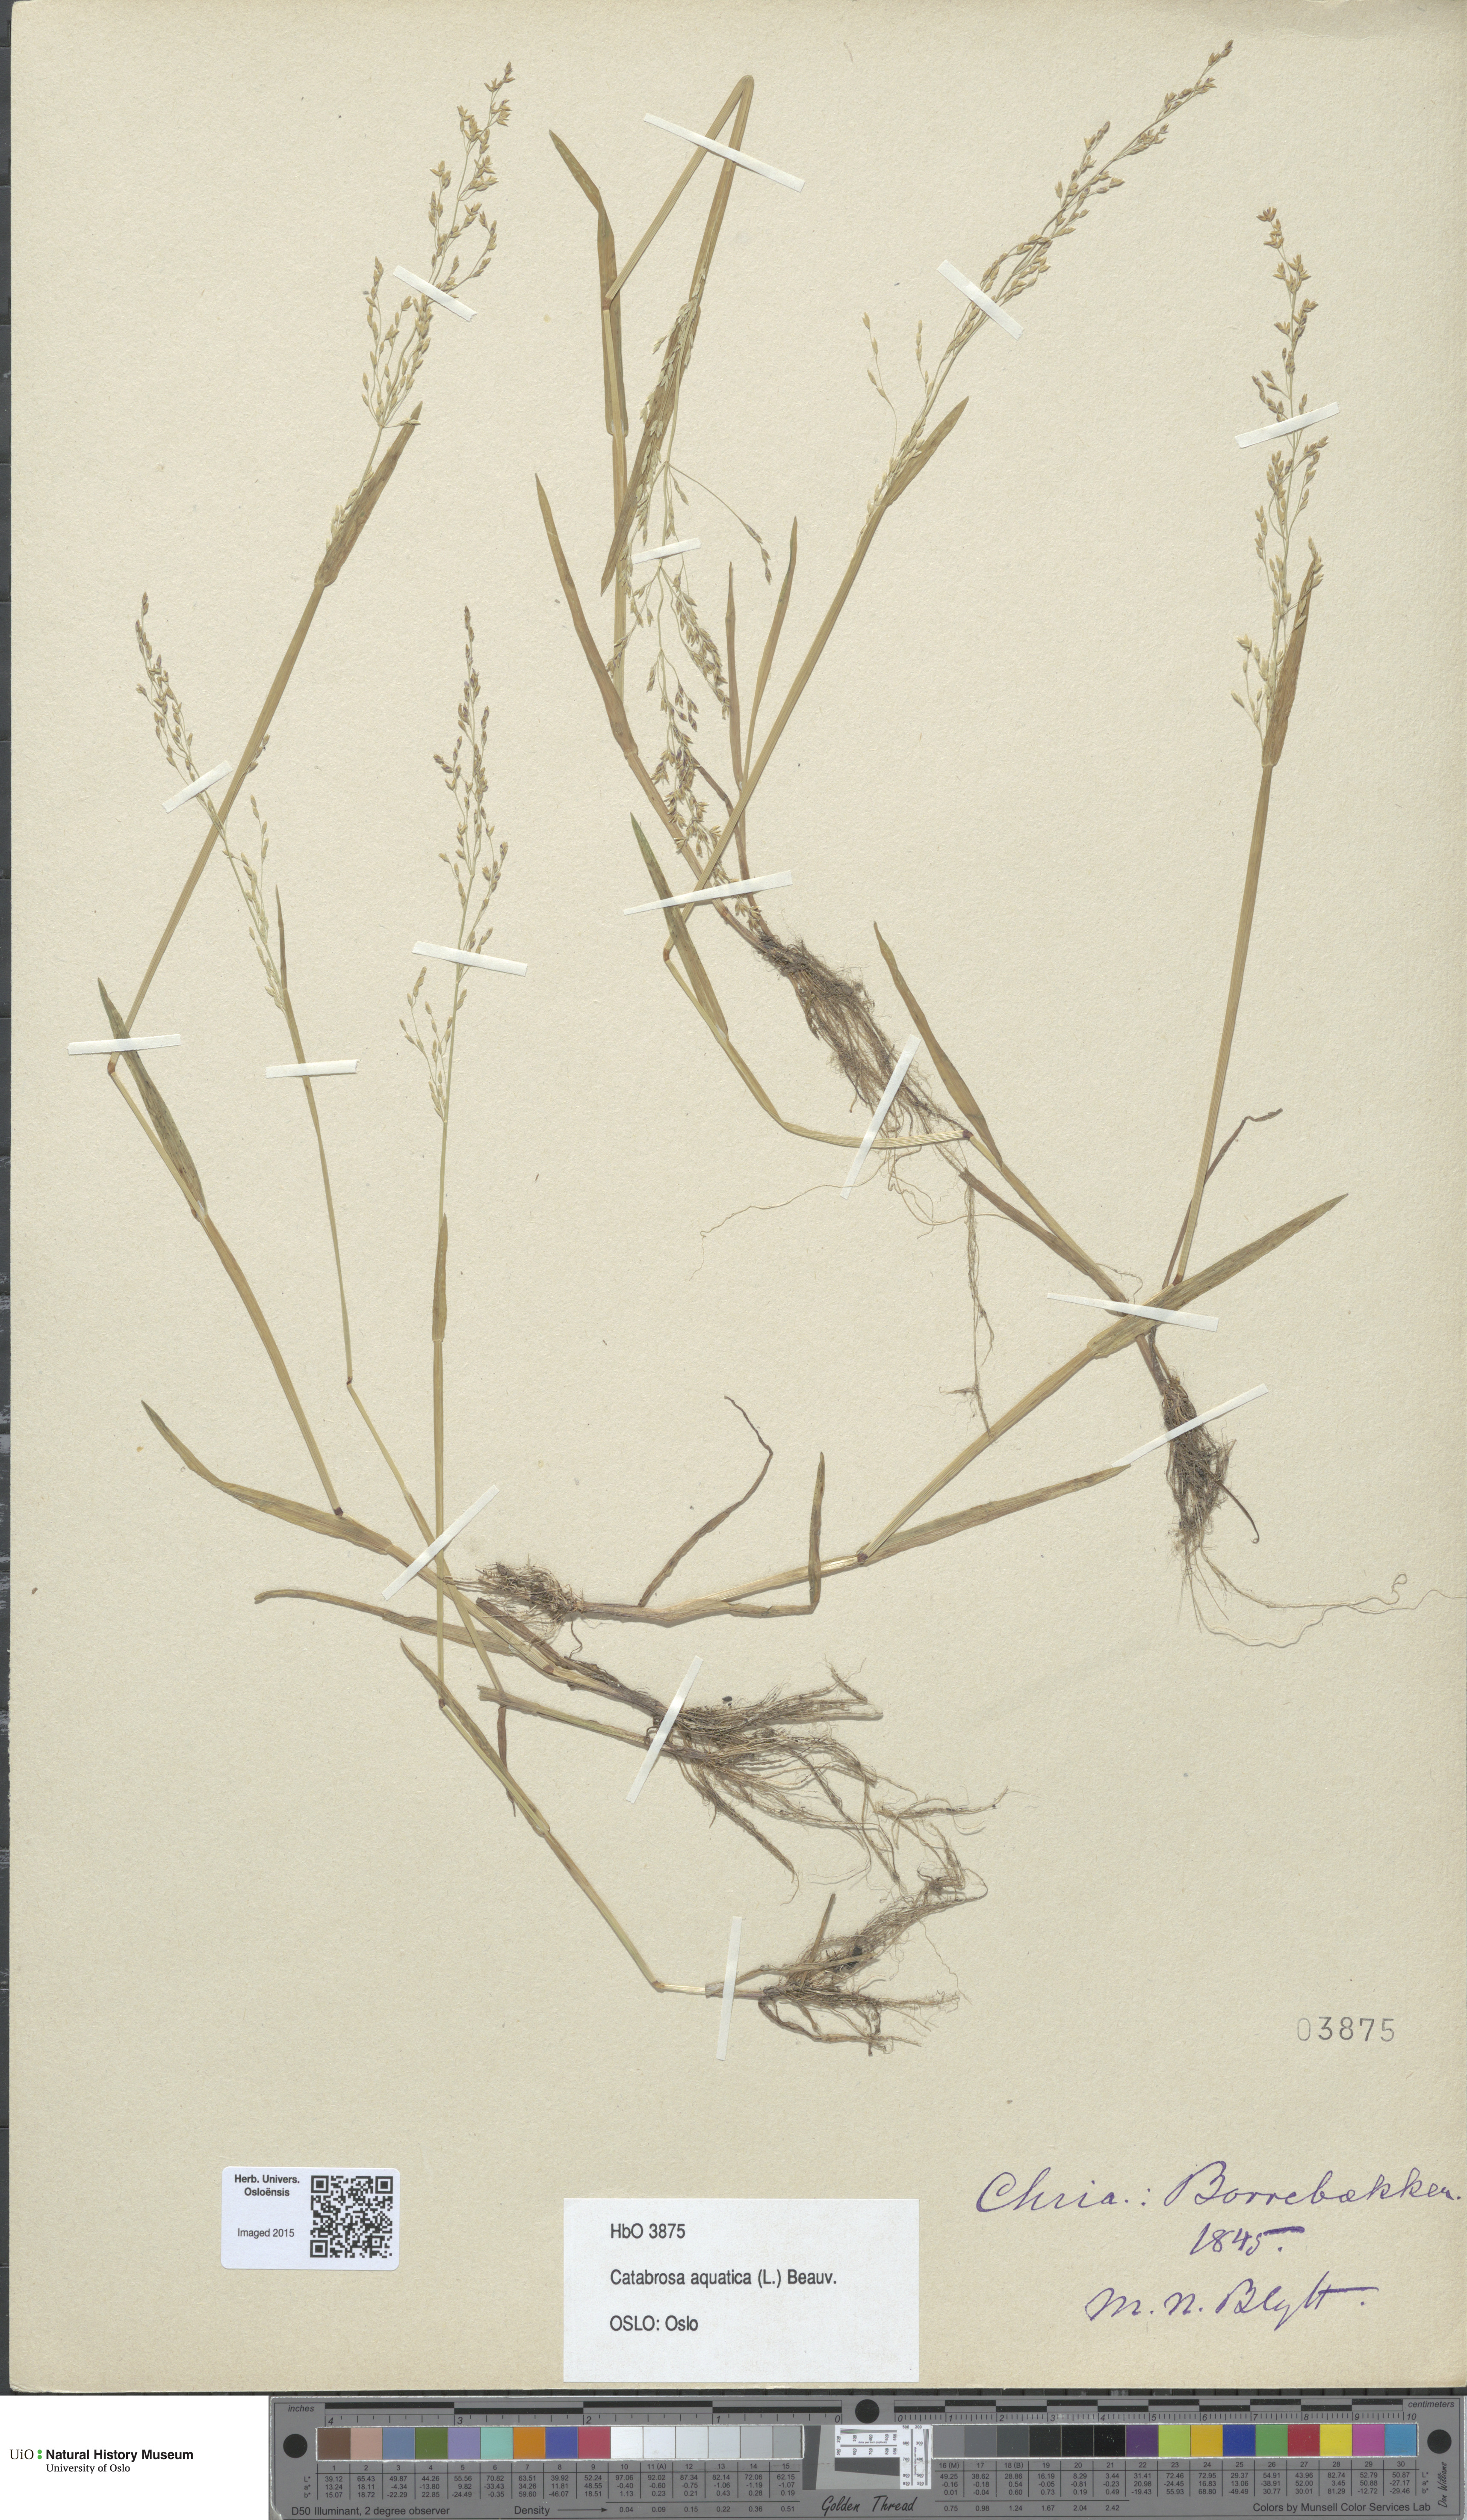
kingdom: Plantae
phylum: Tracheophyta
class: Liliopsida
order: Poales
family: Poaceae
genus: Catabrosa
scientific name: Catabrosa aquatica
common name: Whorl-grass
